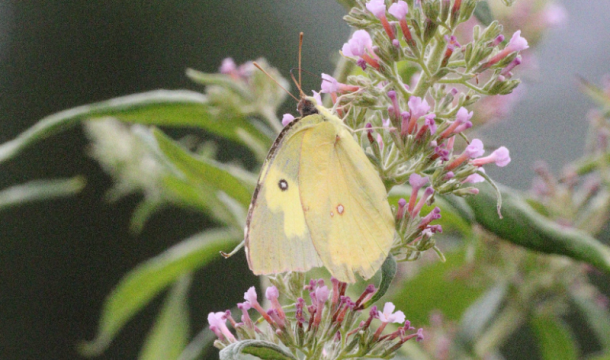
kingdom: Animalia
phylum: Arthropoda
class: Insecta
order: Lepidoptera
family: Pieridae
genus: Zerene
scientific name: Zerene cesonia
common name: Southern Dogface
